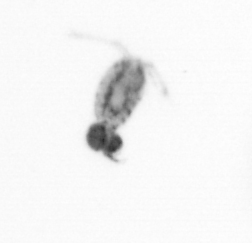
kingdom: Animalia
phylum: Arthropoda
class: Copepoda
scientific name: Copepoda
